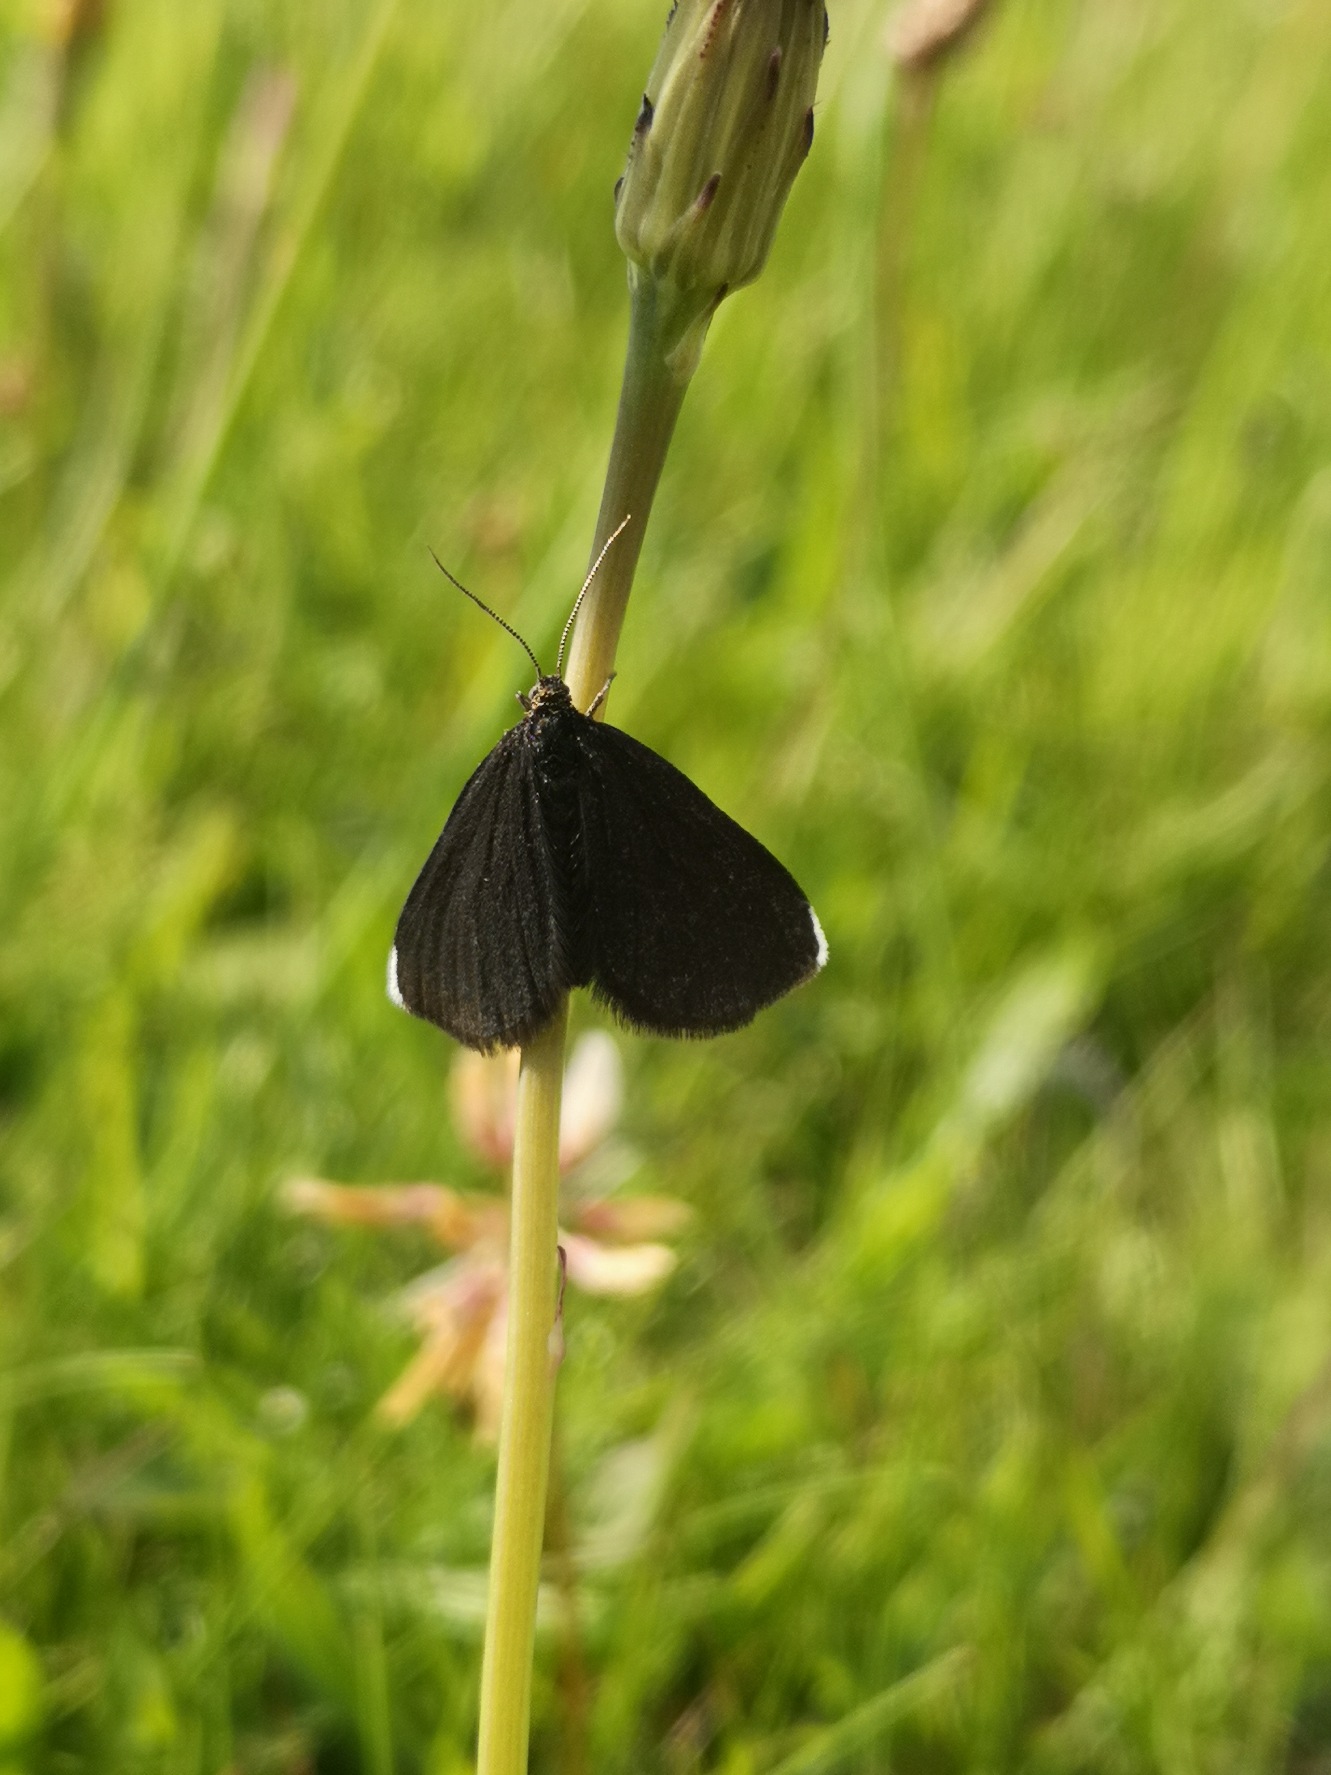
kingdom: Animalia
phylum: Arthropoda
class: Insecta
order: Lepidoptera
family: Geometridae
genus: Odezia
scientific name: Odezia atrata
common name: Sort måler
